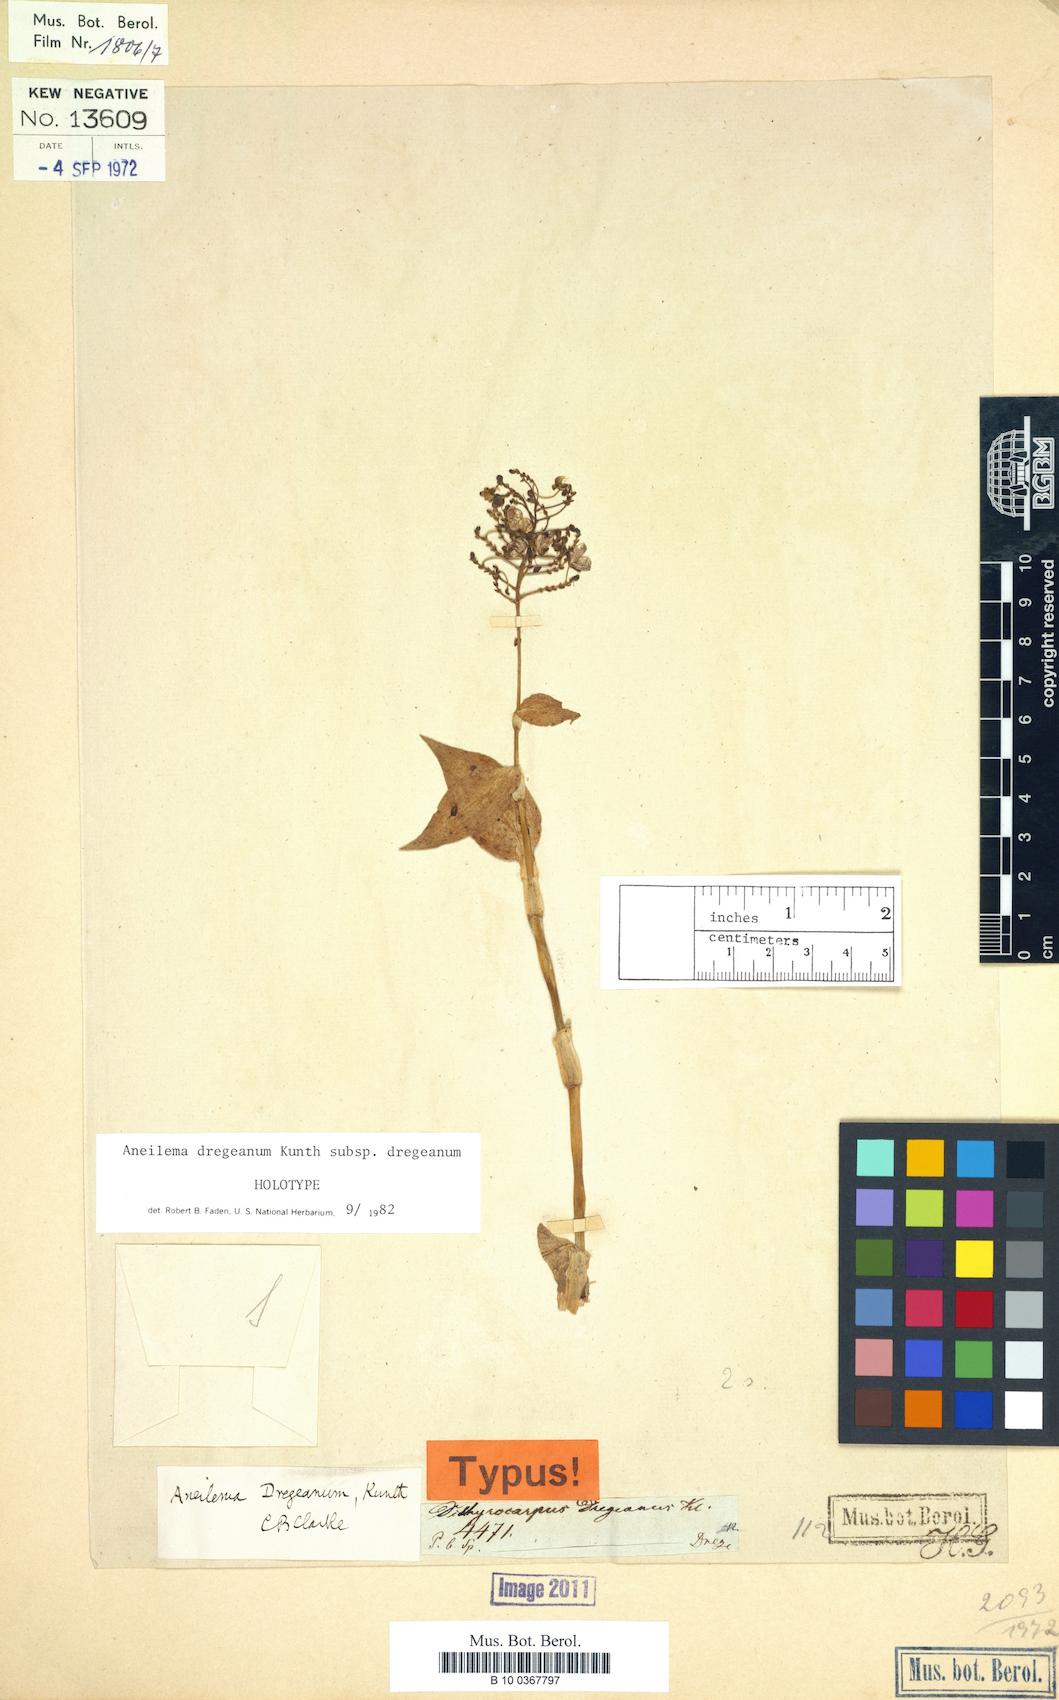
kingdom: Plantae
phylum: Tracheophyta
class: Liliopsida
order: Commelinales
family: Commelinaceae
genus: Aneilema
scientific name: Aneilema dregeanum
